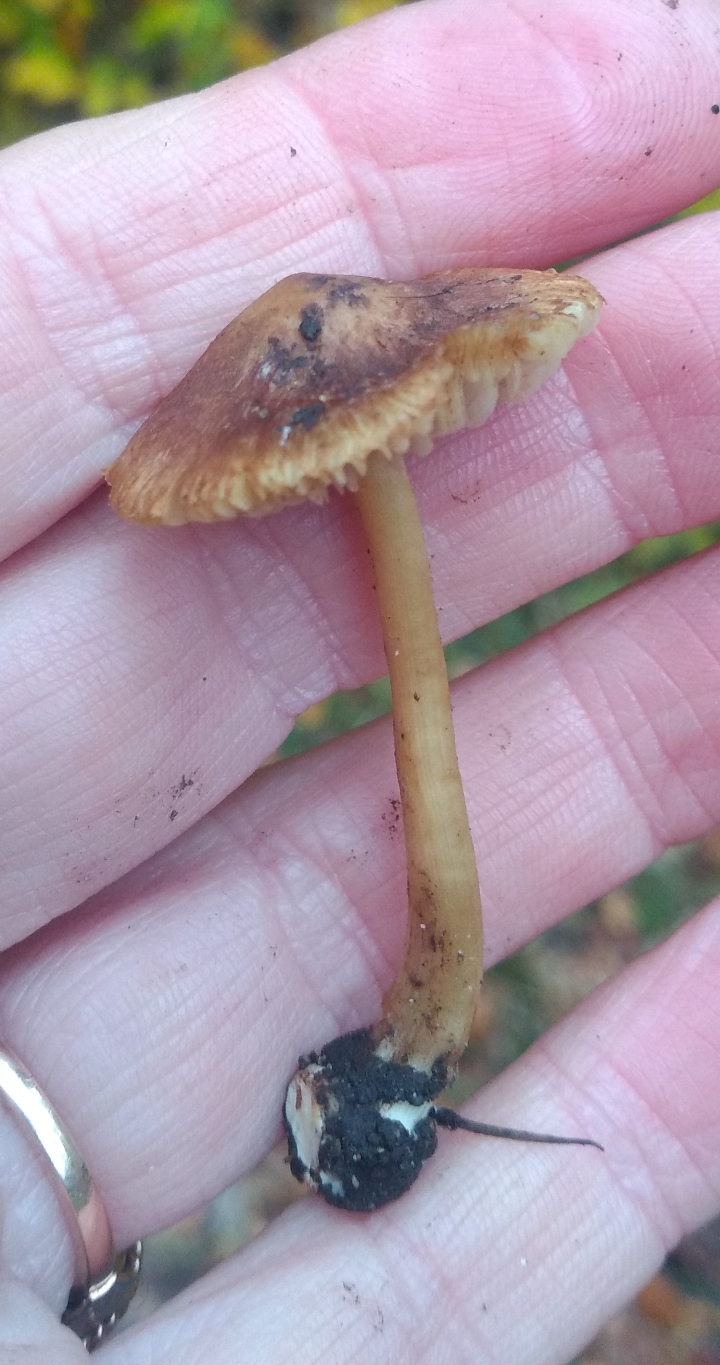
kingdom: Fungi
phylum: Basidiomycota
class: Agaricomycetes
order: Agaricales
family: Inocybaceae
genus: Inocybe
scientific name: Inocybe
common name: trævlhat
